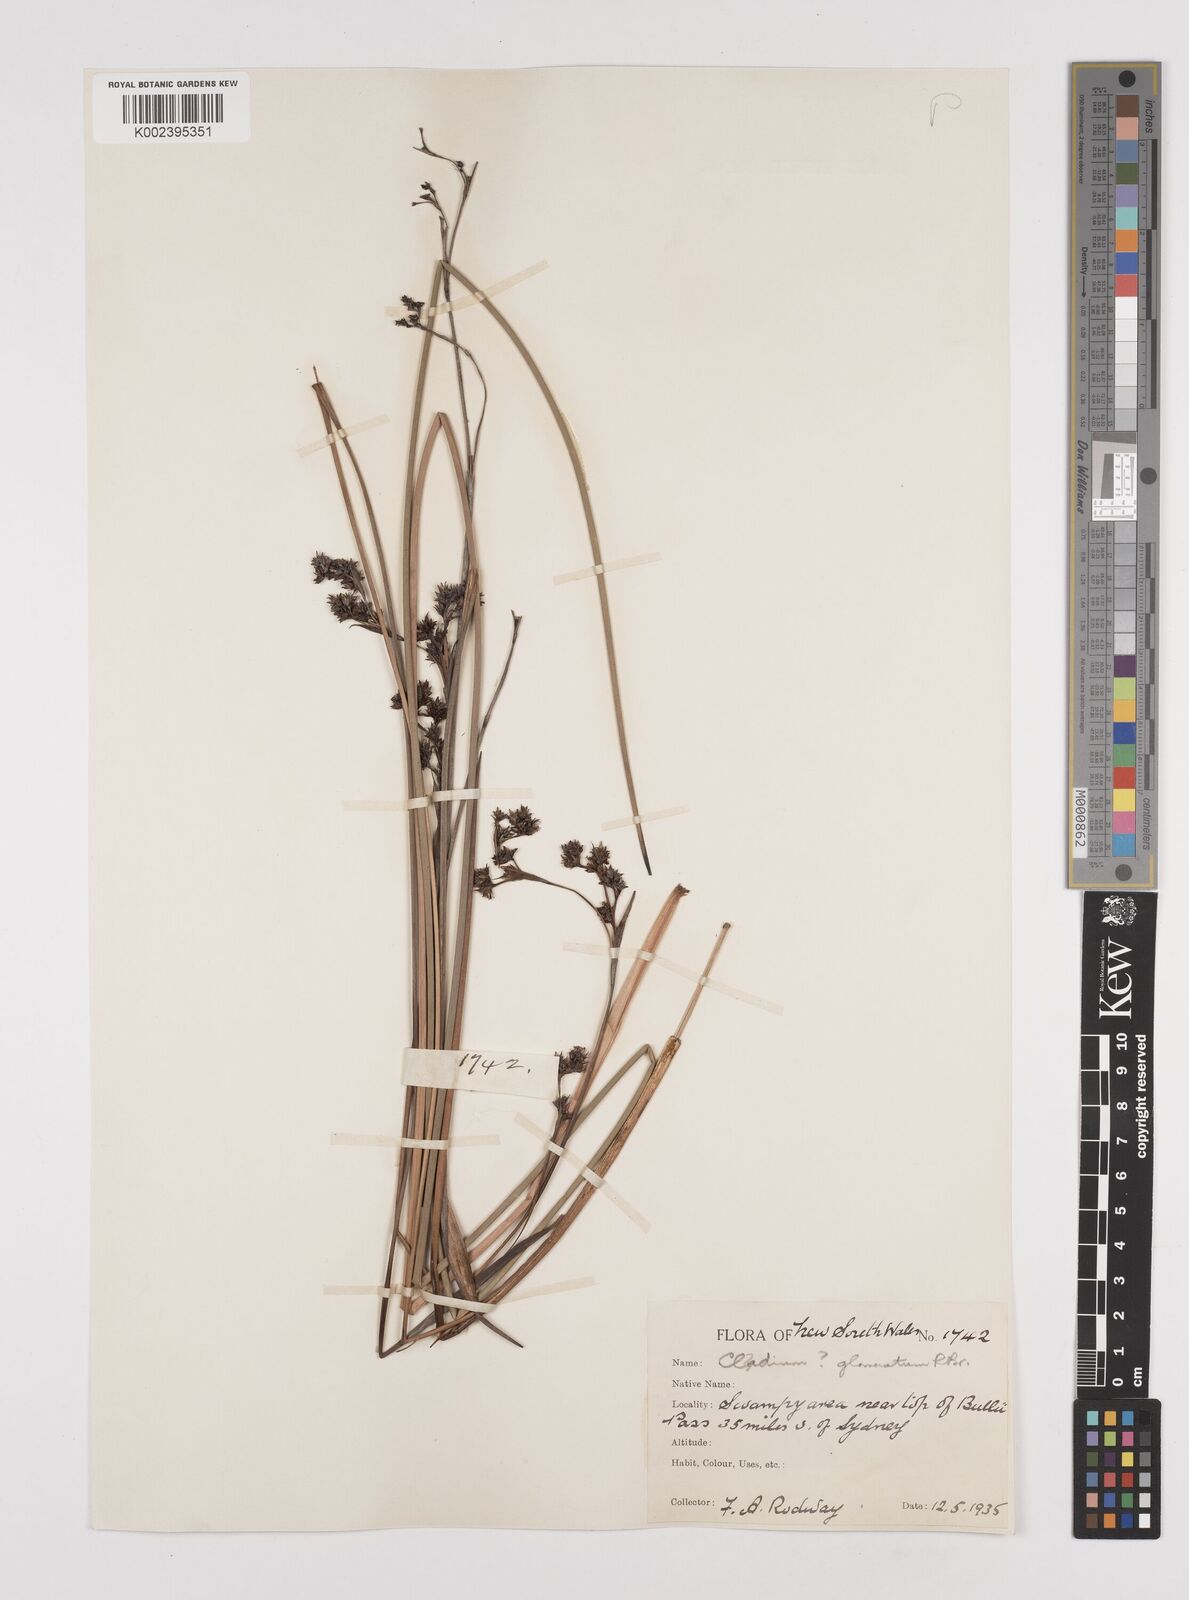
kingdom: Plantae
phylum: Tracheophyta
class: Liliopsida
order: Poales
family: Cyperaceae
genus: Machaerina
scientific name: Machaerina rubiginosa
